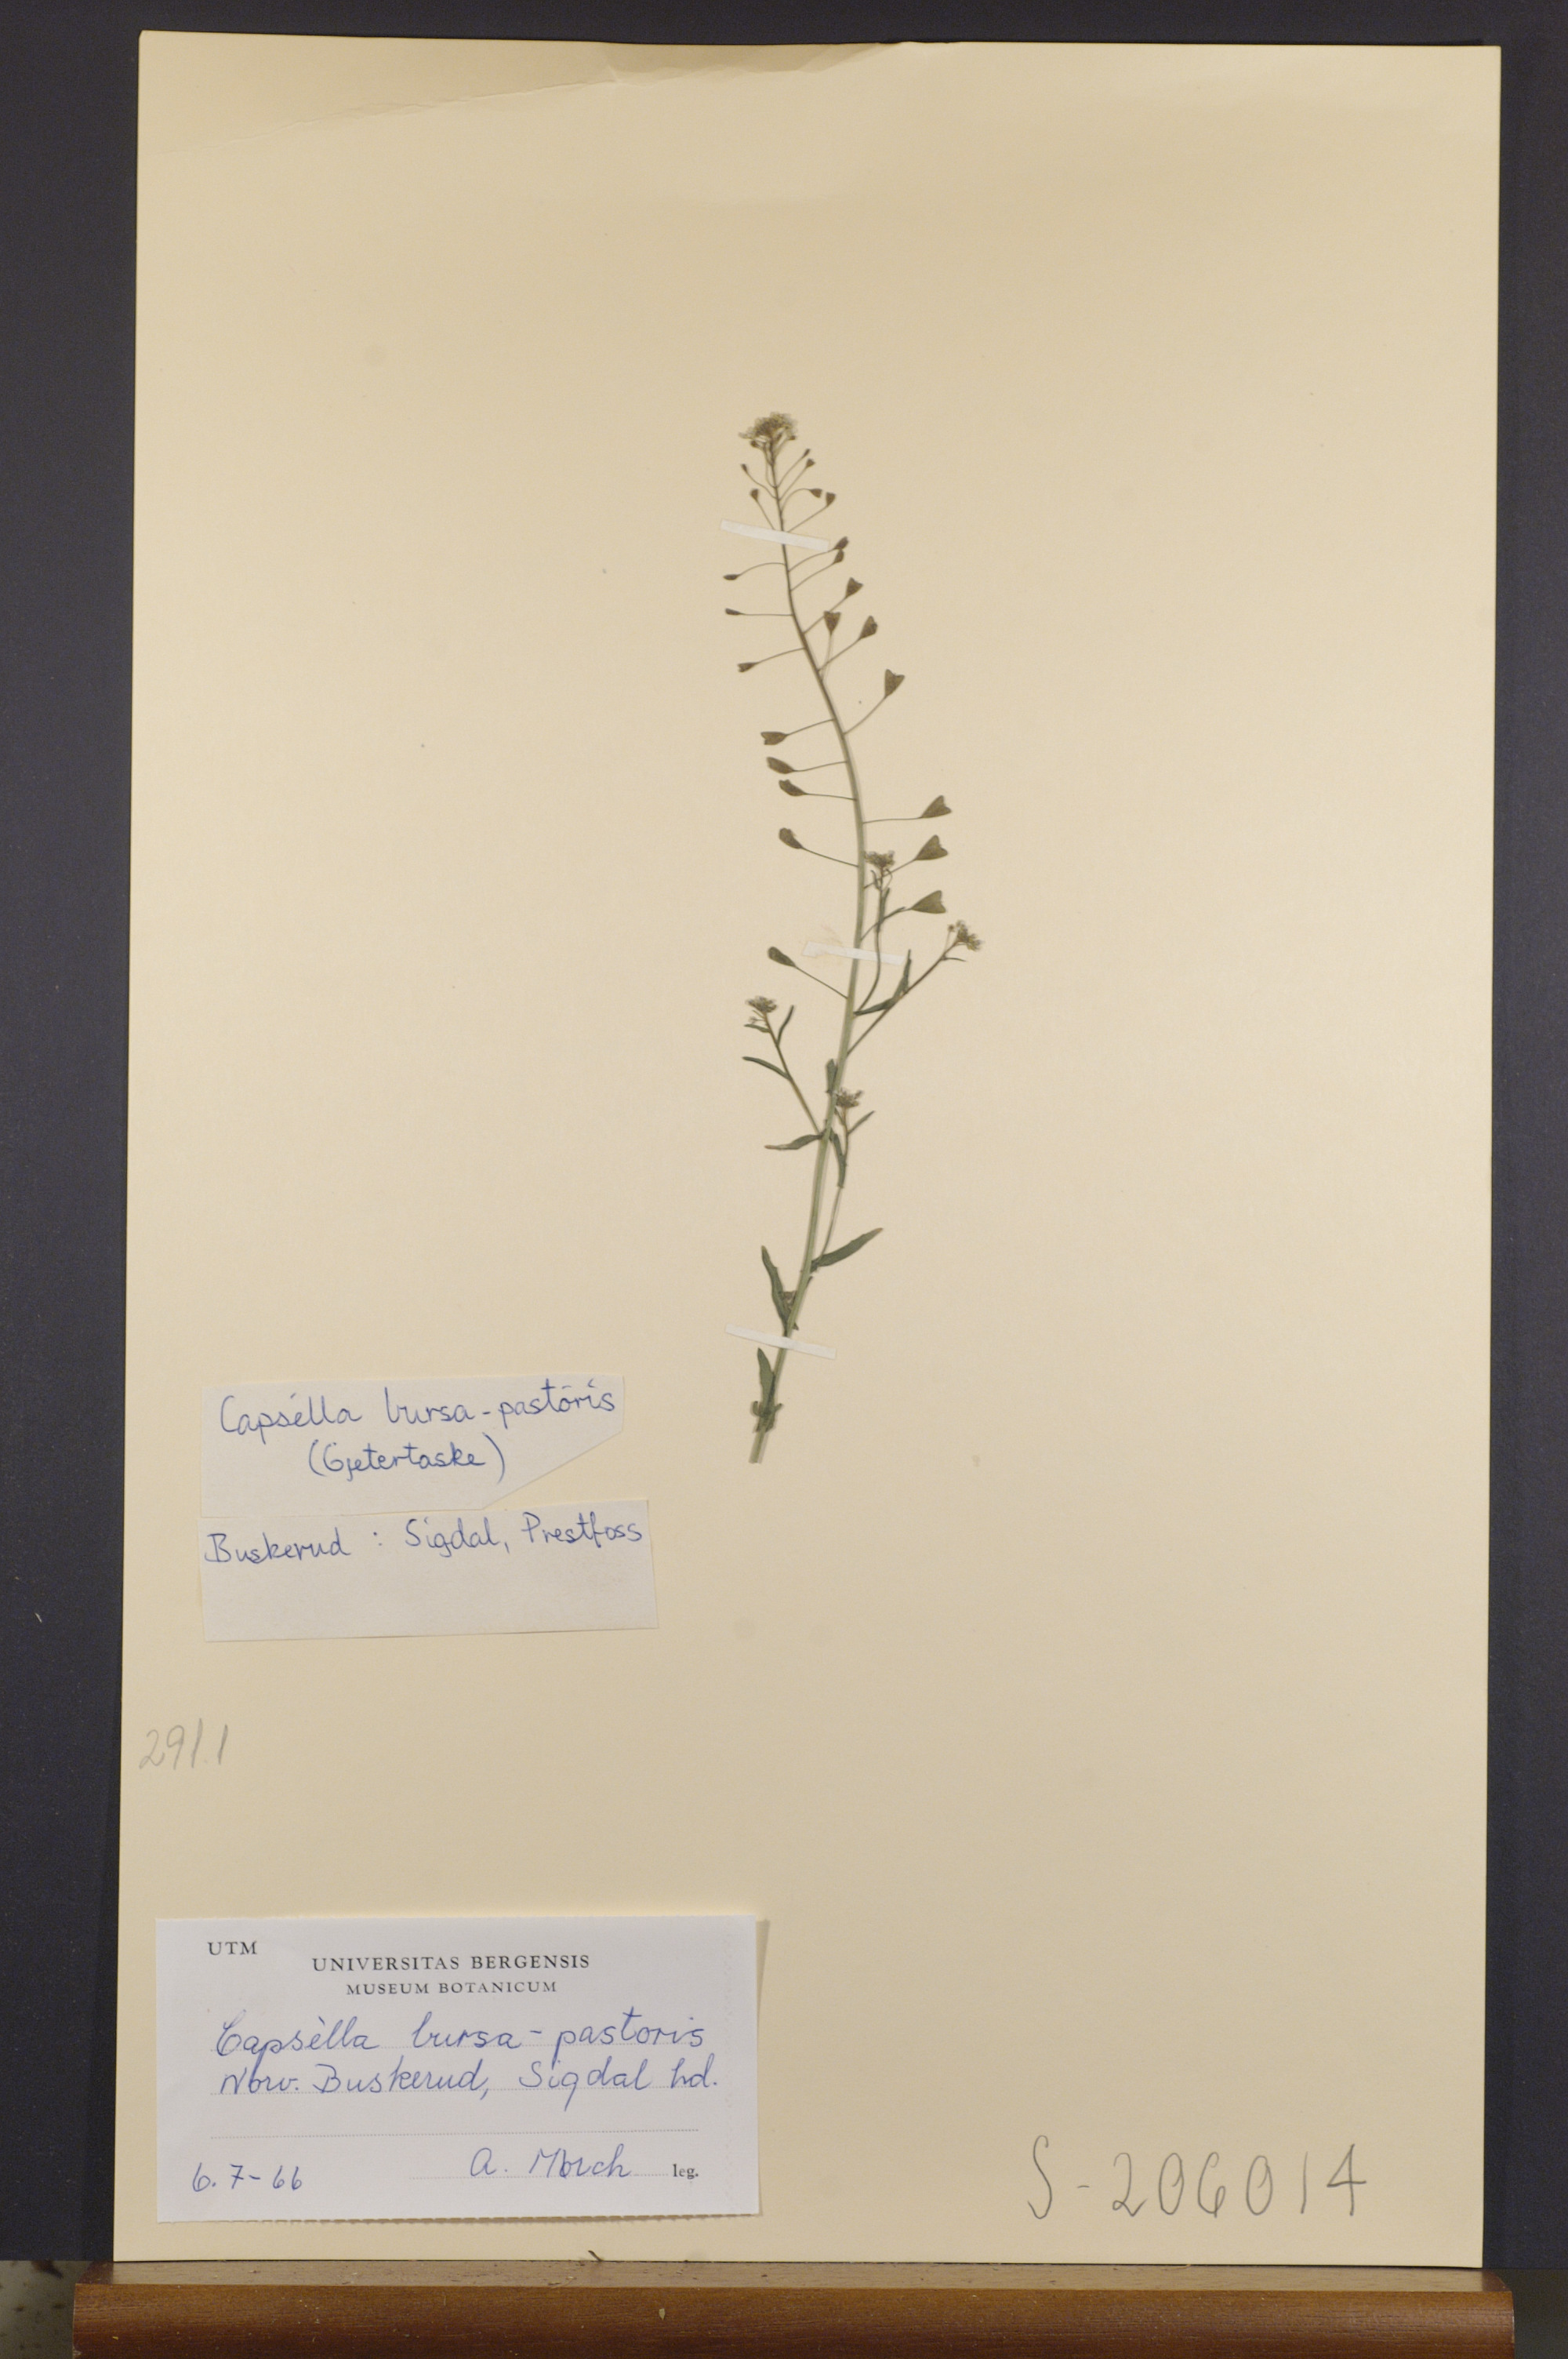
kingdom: Plantae
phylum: Tracheophyta
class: Magnoliopsida
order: Brassicales
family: Brassicaceae
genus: Capsella
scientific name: Capsella bursa-pastoris
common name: Shepherd's purse
